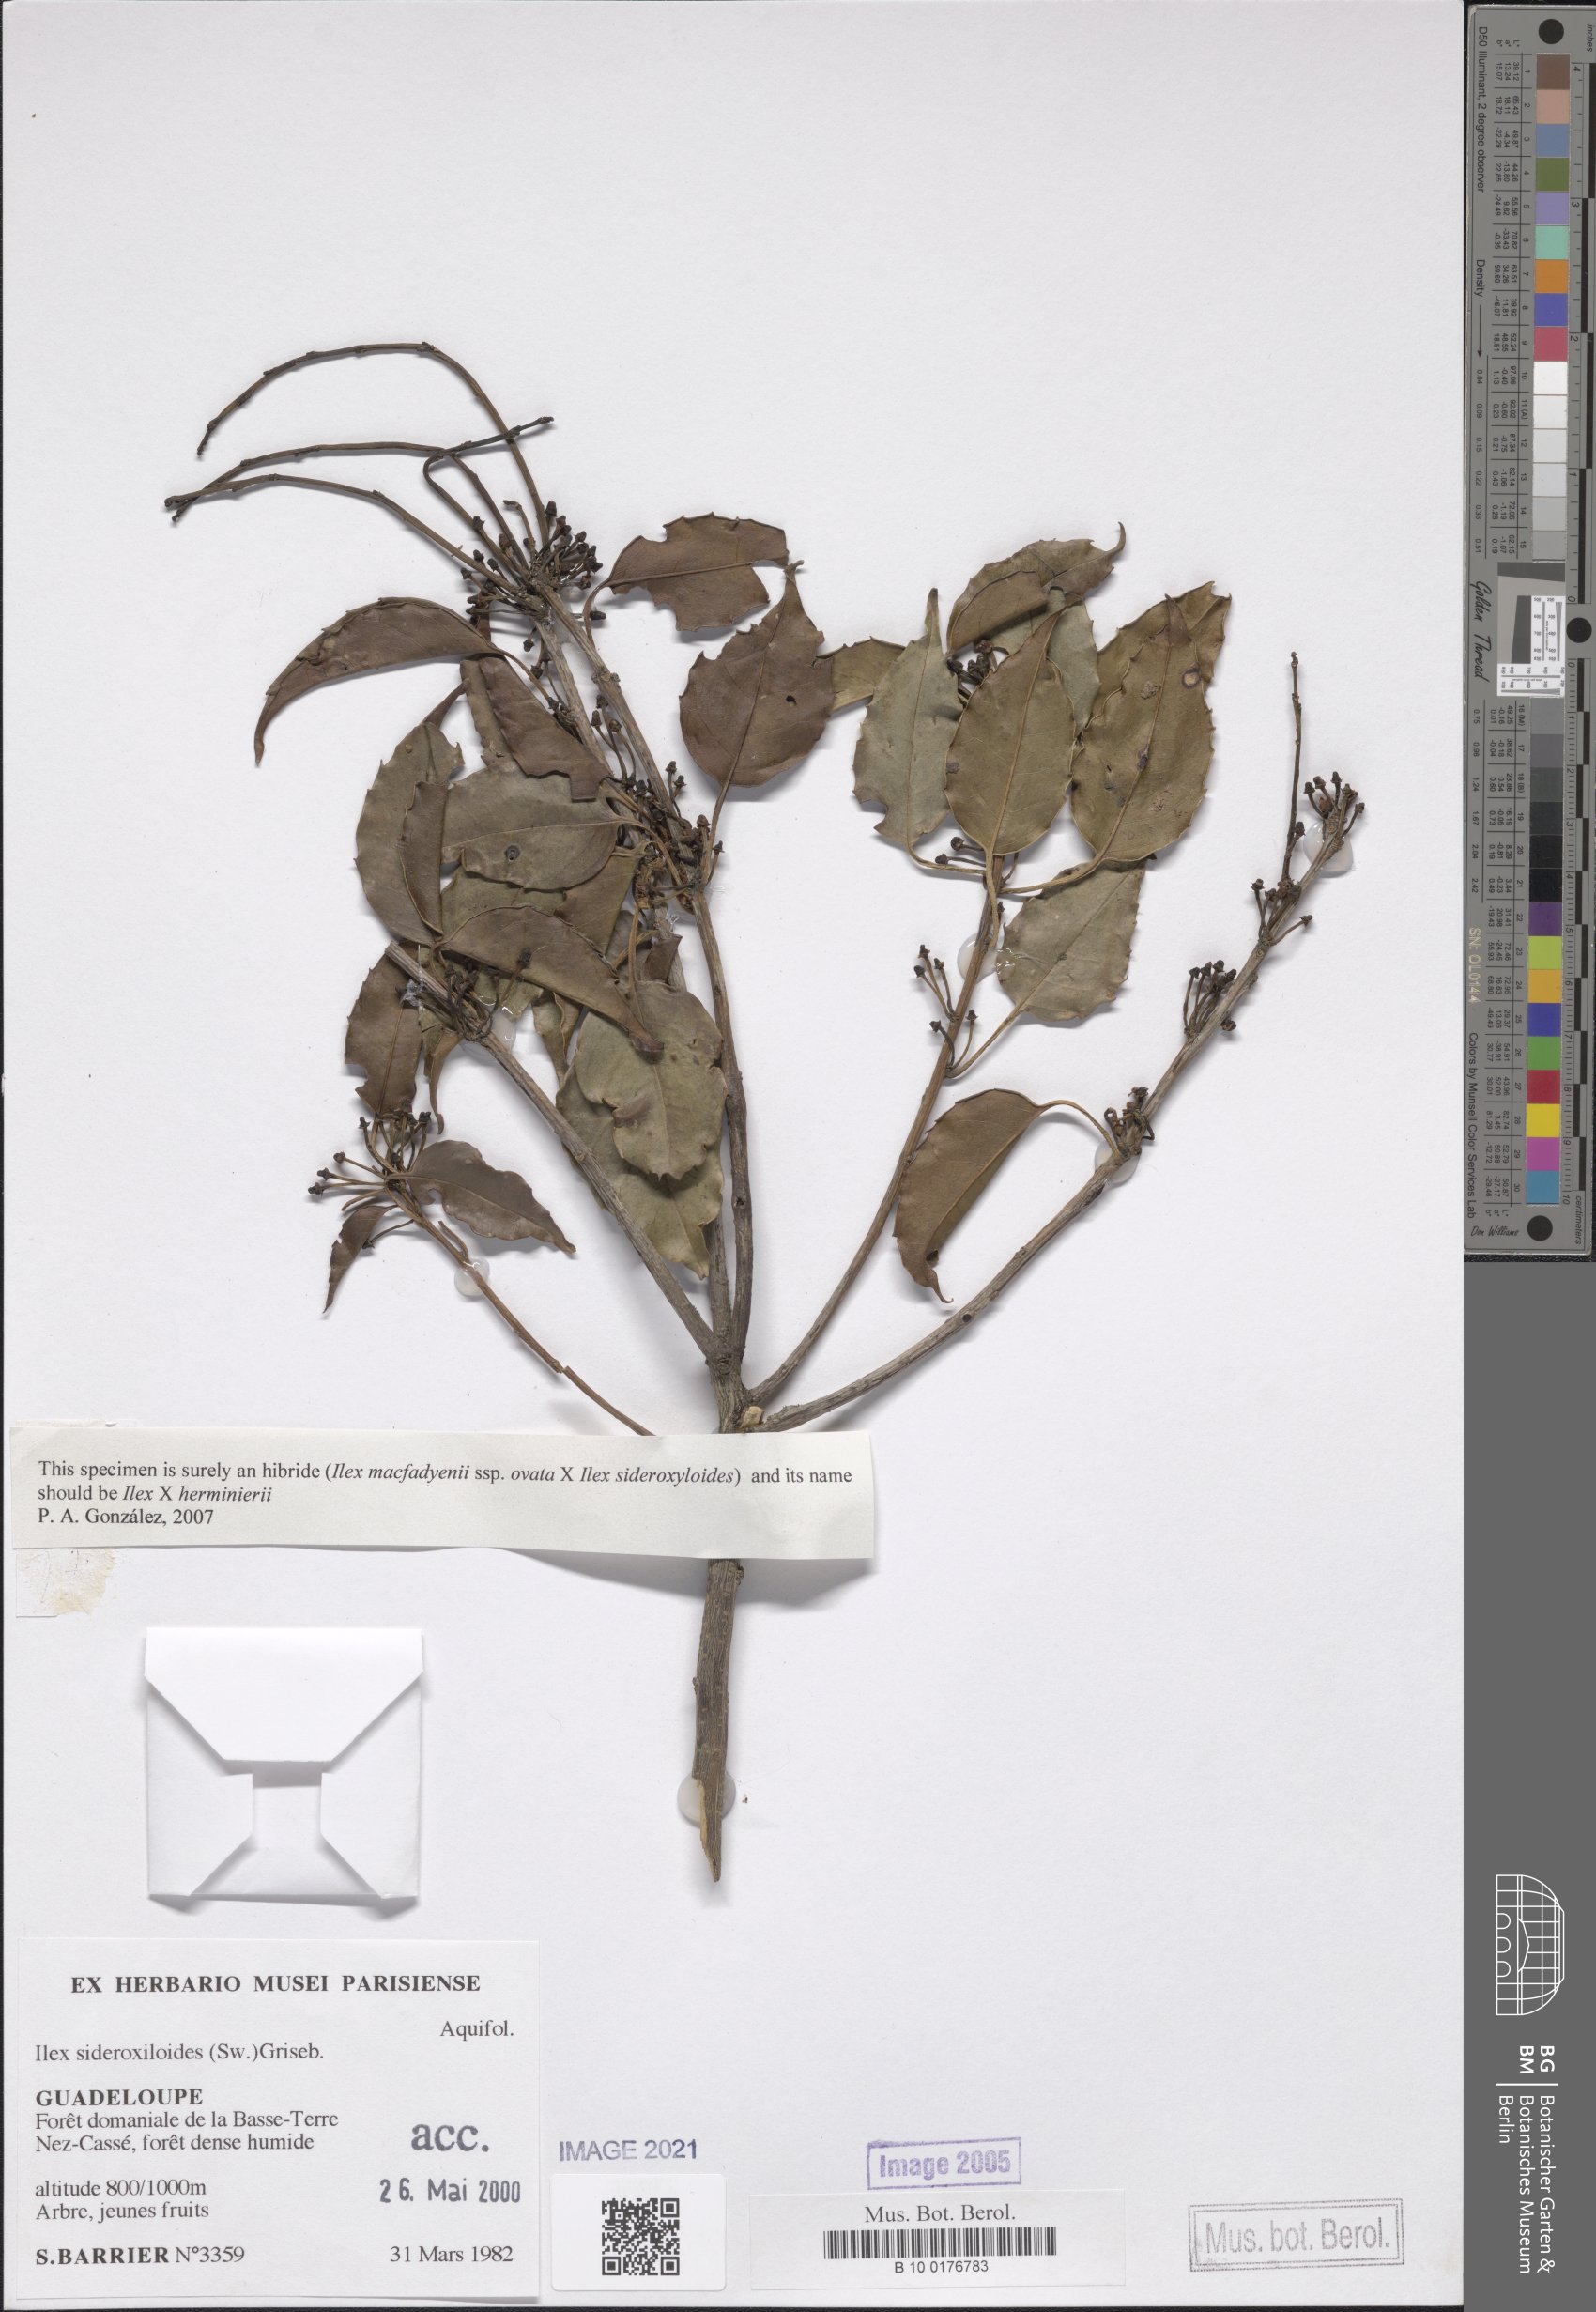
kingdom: Plantae
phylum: Tracheophyta
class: Magnoliopsida
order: Aquifoliales
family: Aquifoliaceae
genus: Ilex
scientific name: Ilex sideroxyloides
